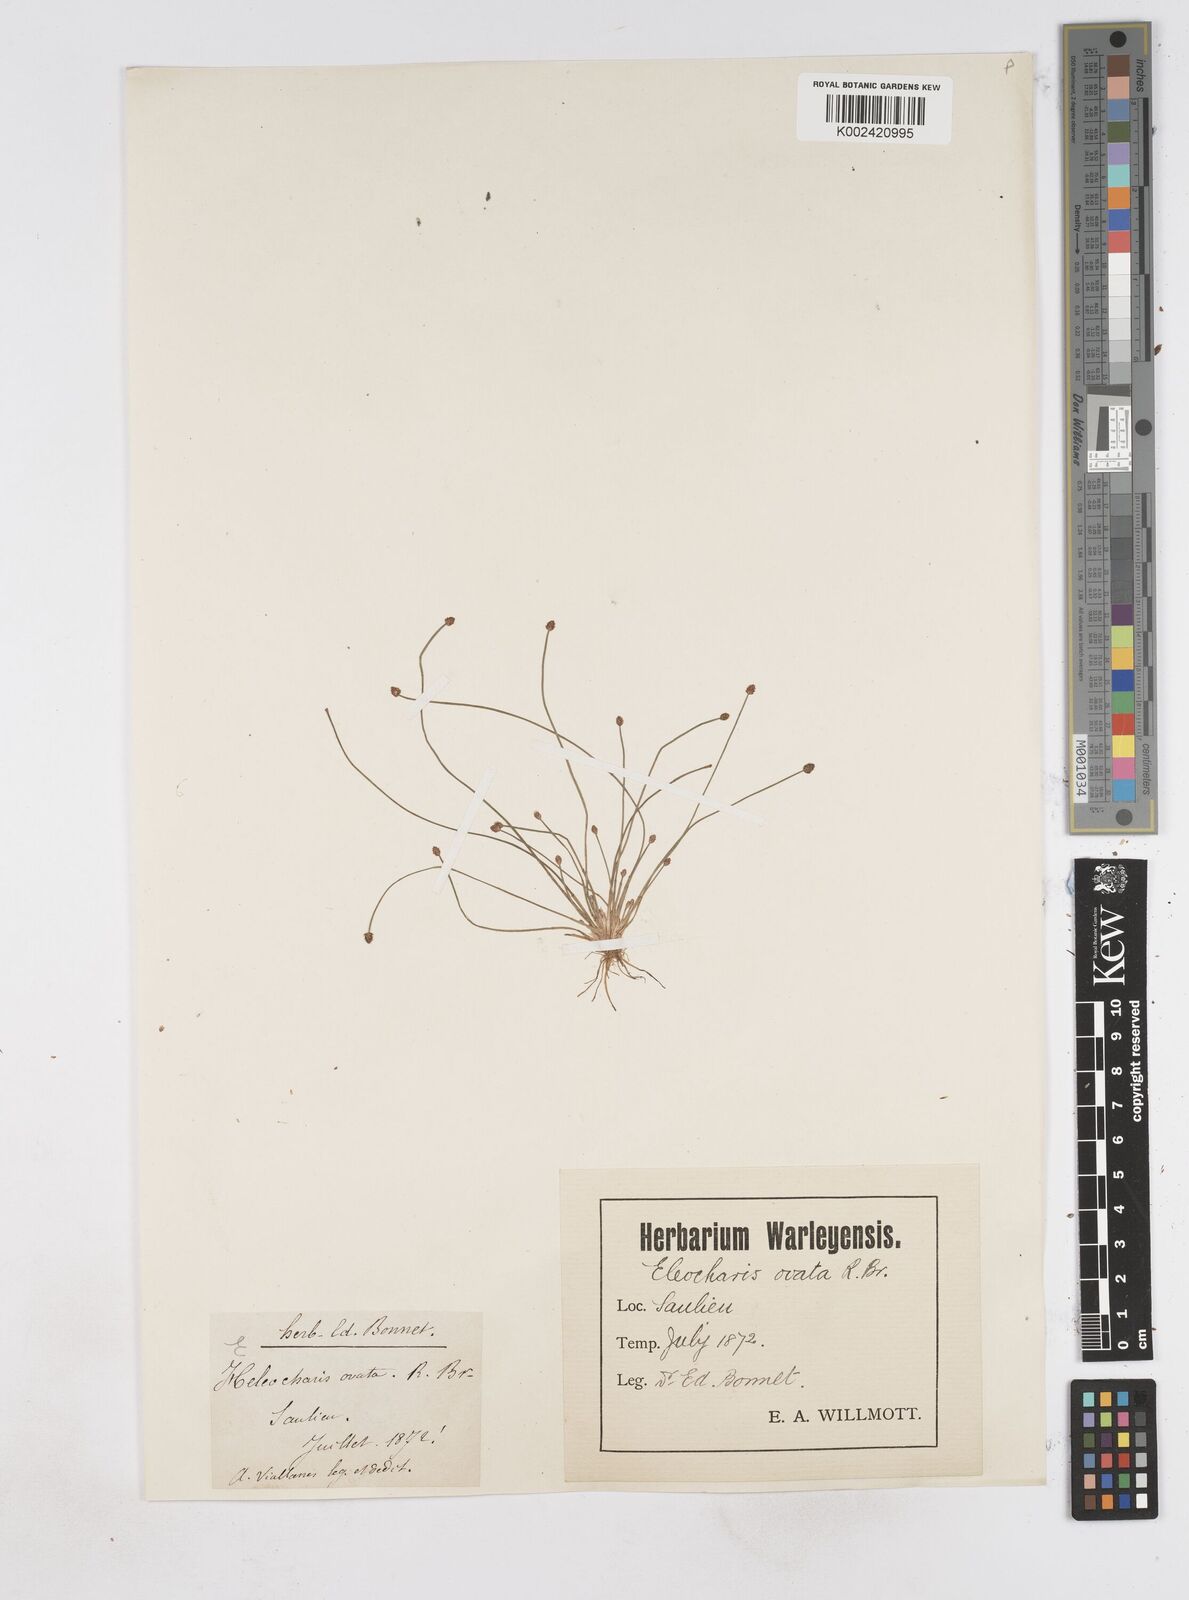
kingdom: Plantae
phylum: Tracheophyta
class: Liliopsida
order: Poales
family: Cyperaceae
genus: Eleocharis
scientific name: Eleocharis ovata
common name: Oval spike-rush
